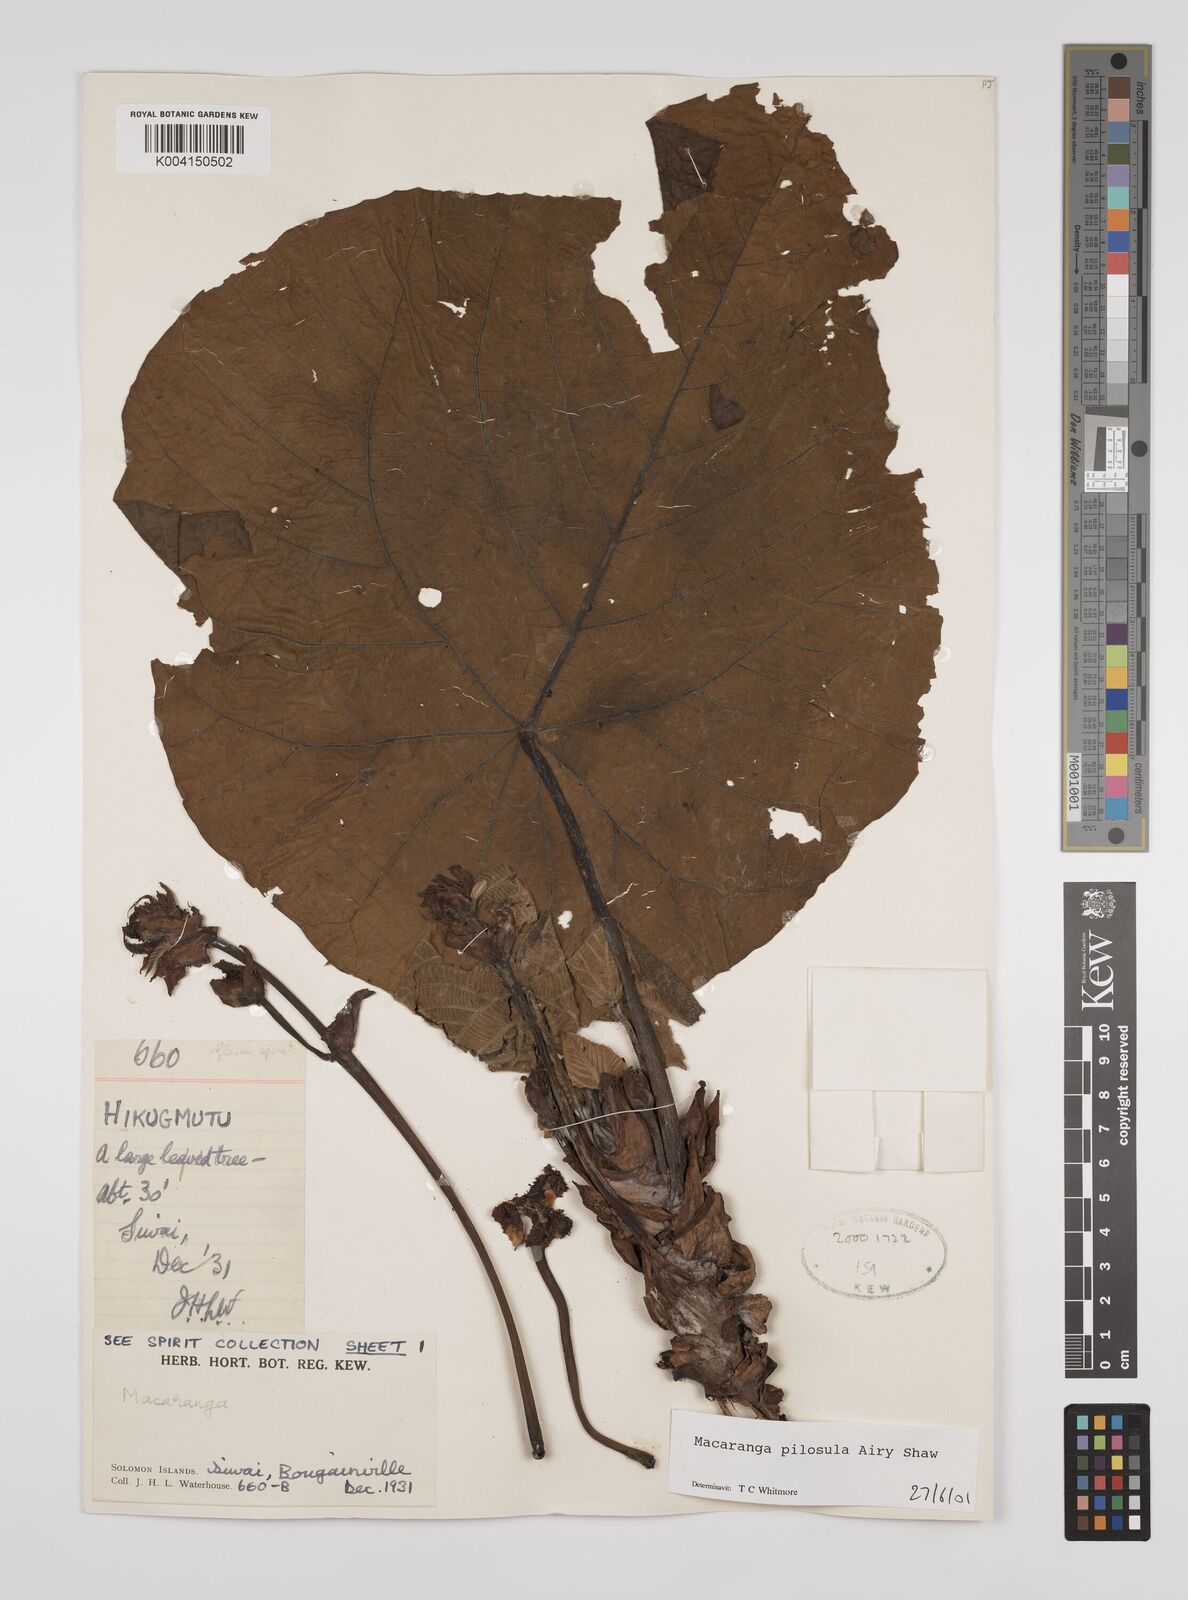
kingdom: Plantae
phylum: Tracheophyta
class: Magnoliopsida
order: Malpighiales
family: Euphorbiaceae
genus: Macaranga
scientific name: Macaranga
